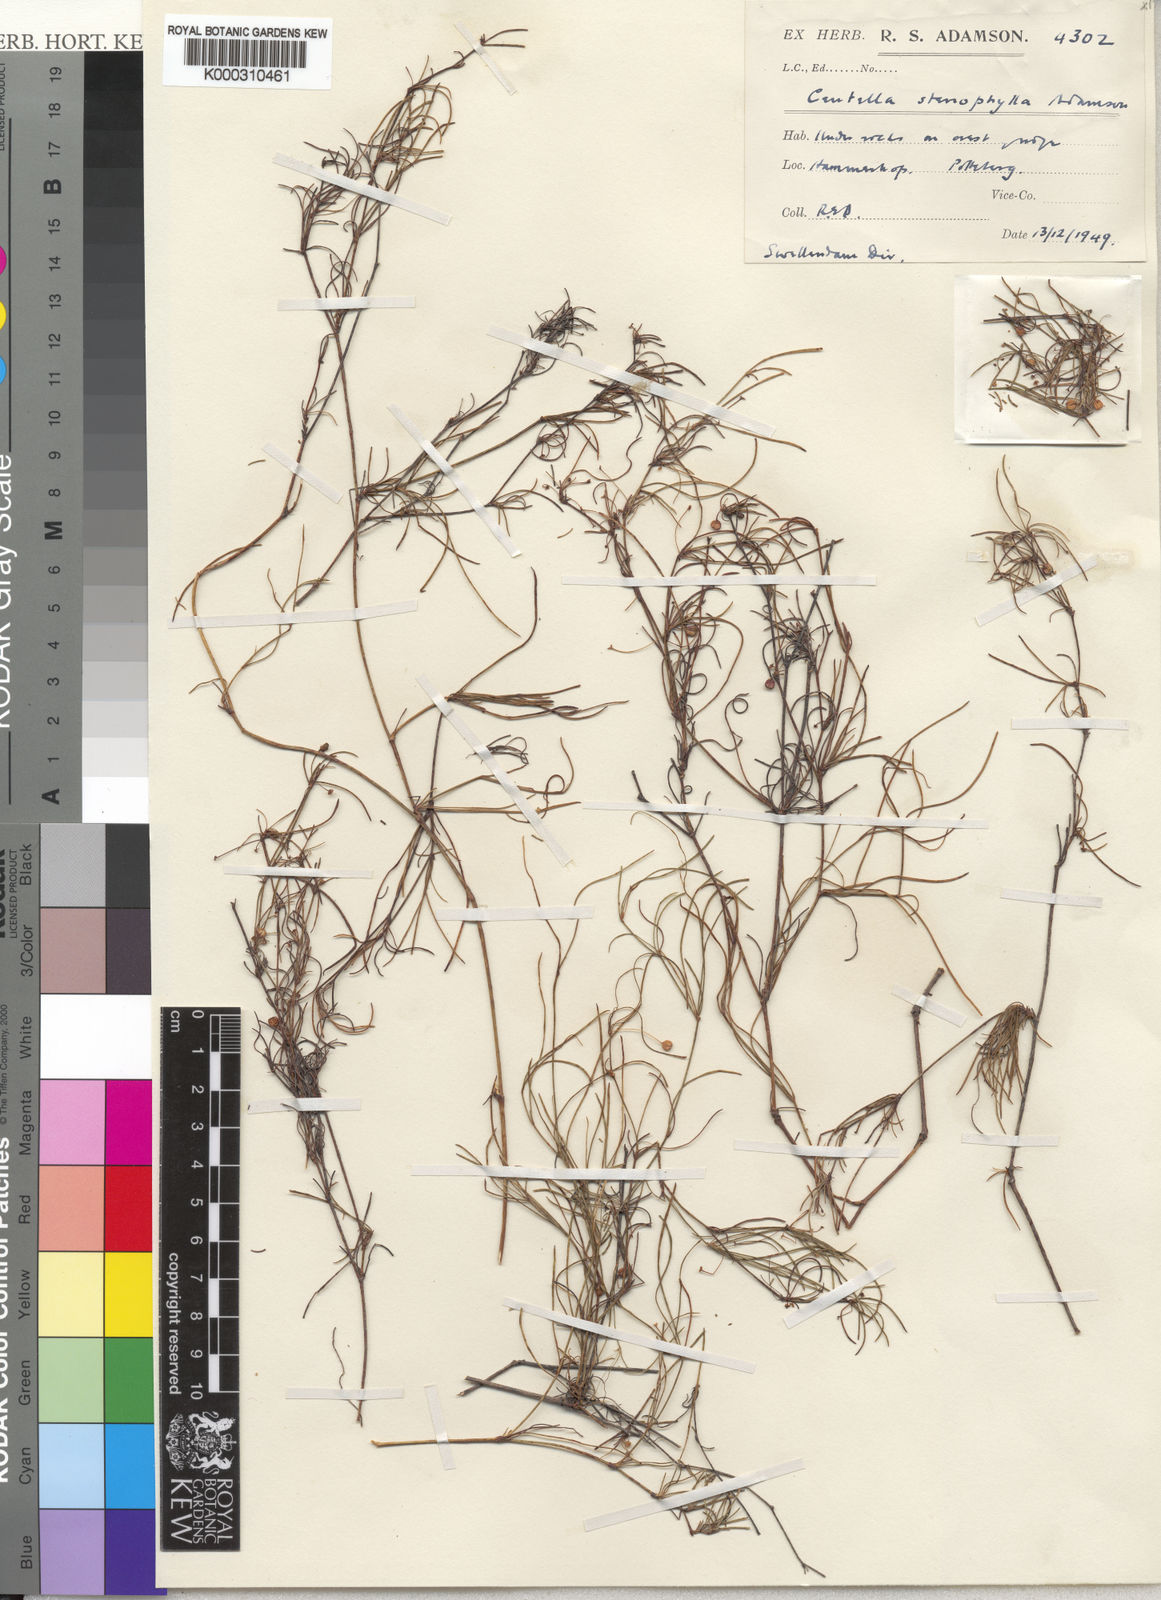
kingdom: Plantae
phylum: Tracheophyta
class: Magnoliopsida
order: Apiales
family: Apiaceae
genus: Centella
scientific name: Centella stenophylla
